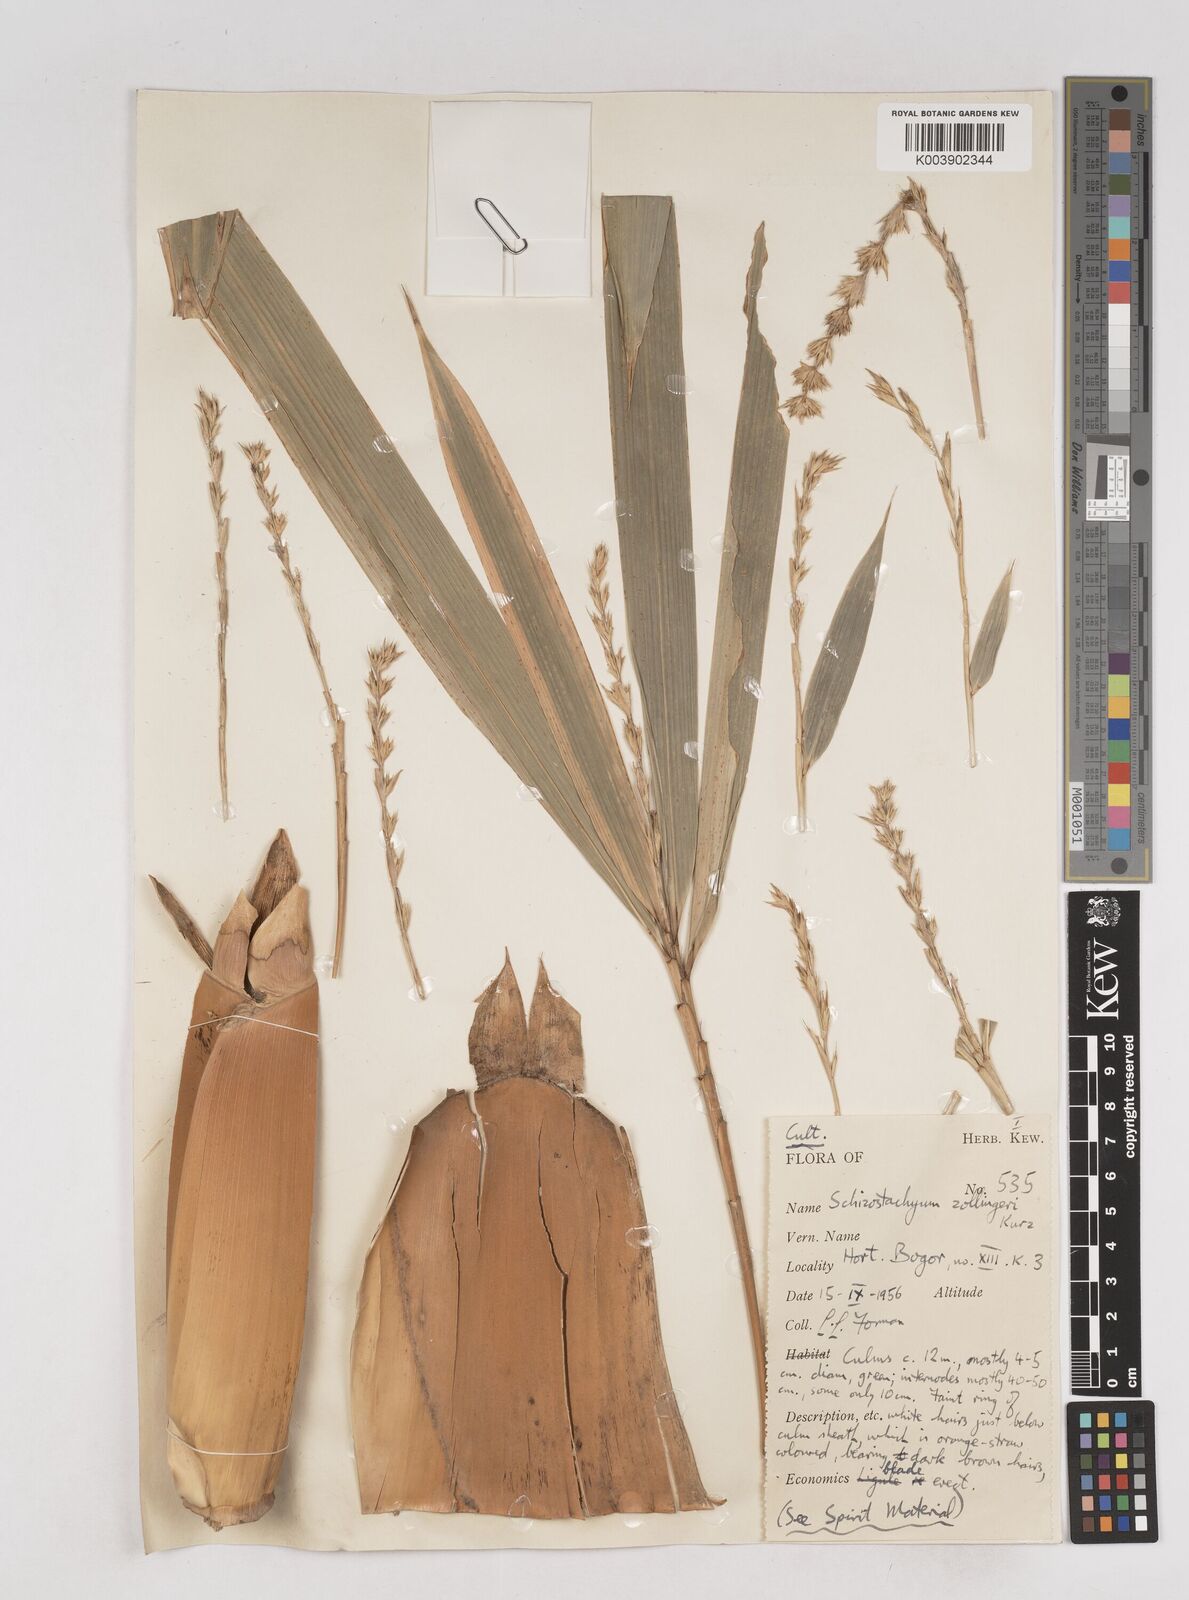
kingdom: Plantae
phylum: Tracheophyta
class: Liliopsida
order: Poales
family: Poaceae
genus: Schizostachyum
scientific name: Schizostachyum zollingeri
